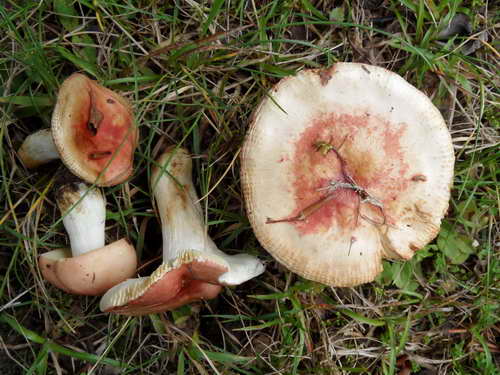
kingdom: Fungi
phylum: Basidiomycota
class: Agaricomycetes
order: Russulales
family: Russulaceae
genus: Russula
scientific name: Russula puellula
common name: gulnende skørhat
